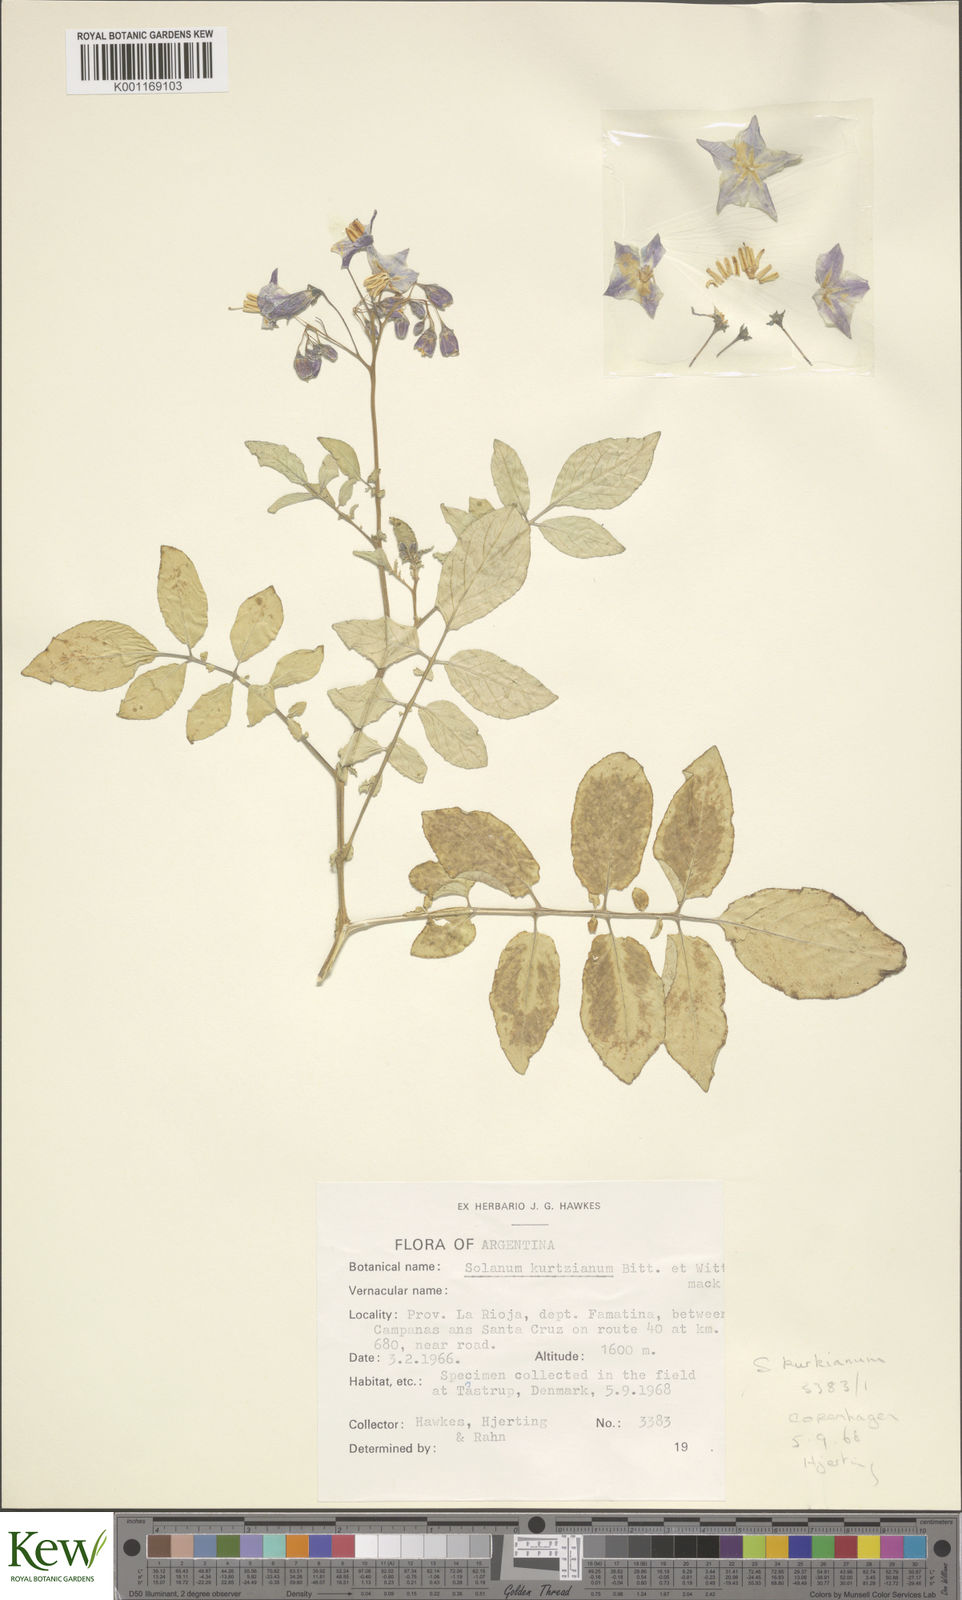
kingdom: Plantae
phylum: Tracheophyta
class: Magnoliopsida
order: Solanales
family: Solanaceae
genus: Solanum
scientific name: Solanum kurtzianum
